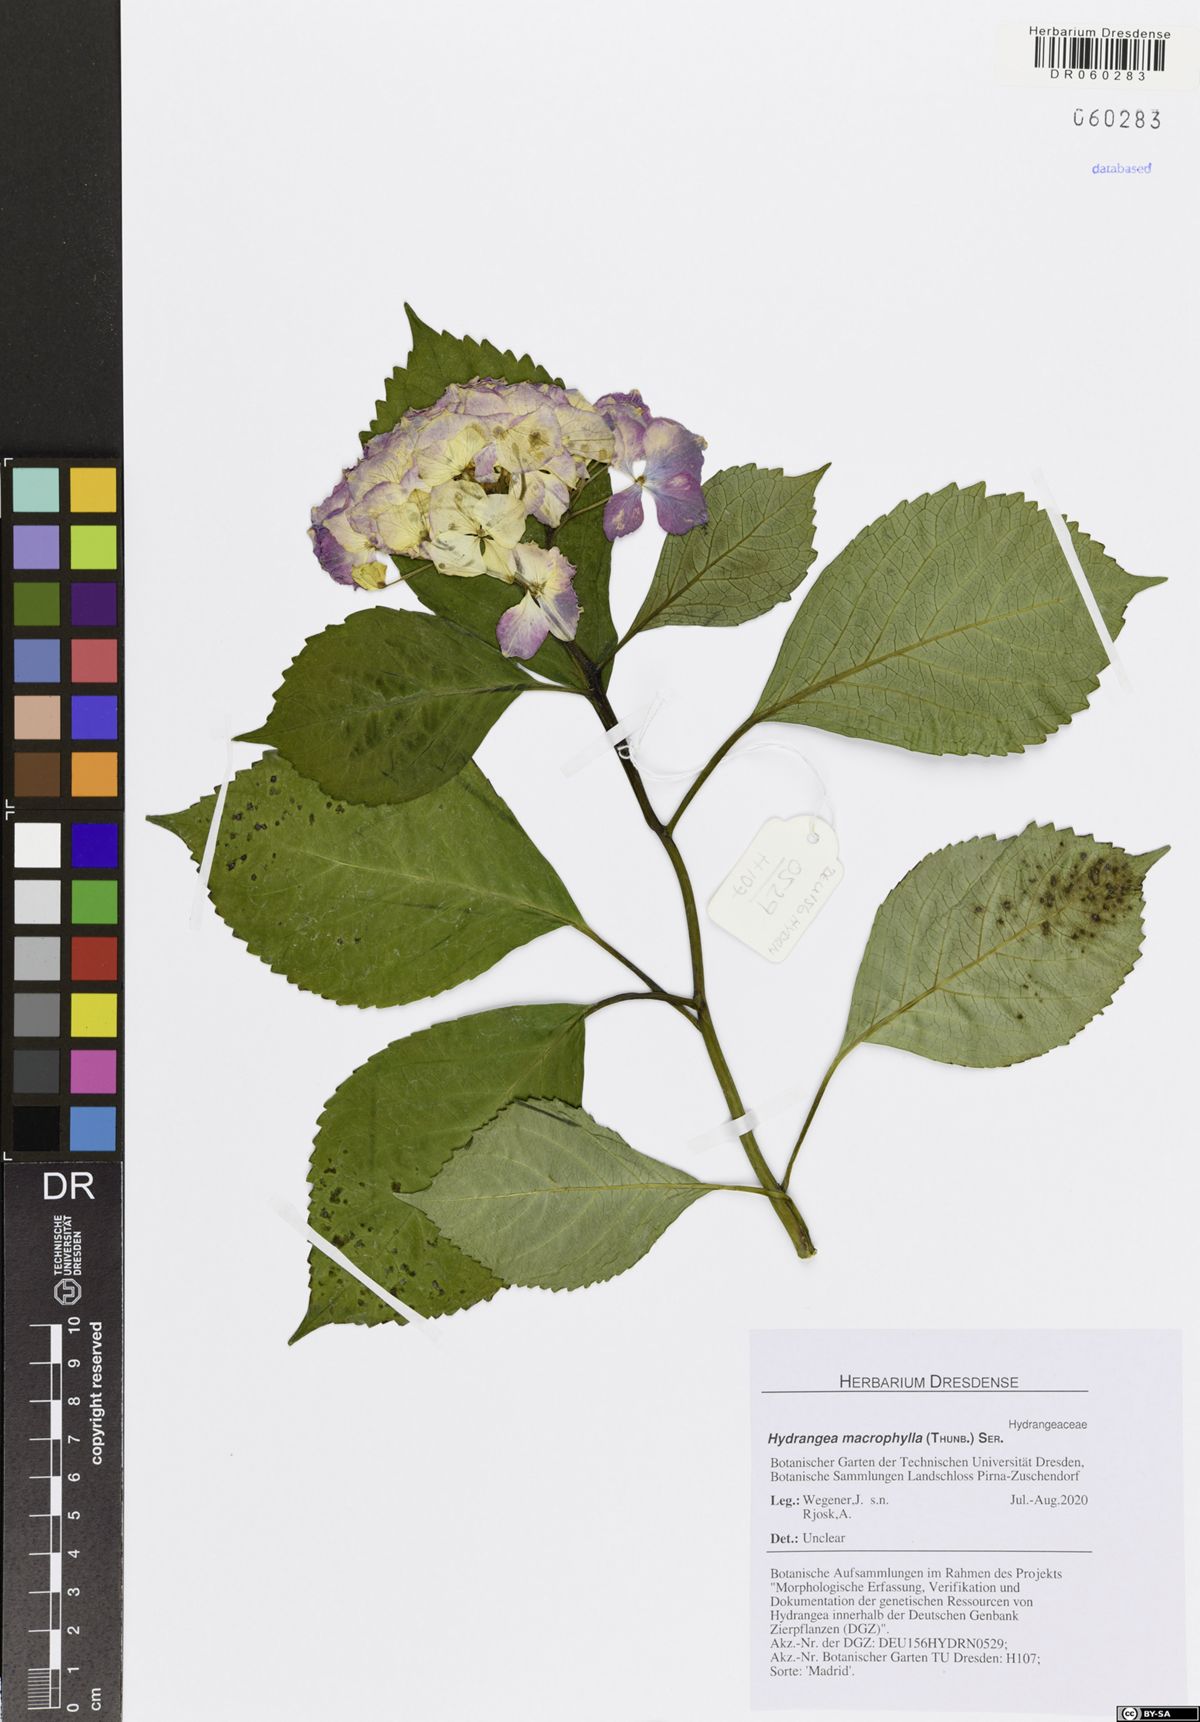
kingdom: Plantae
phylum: Tracheophyta
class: Magnoliopsida
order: Cornales
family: Hydrangeaceae
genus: Hydrangea
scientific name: Hydrangea macrophylla
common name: Hydrangea
